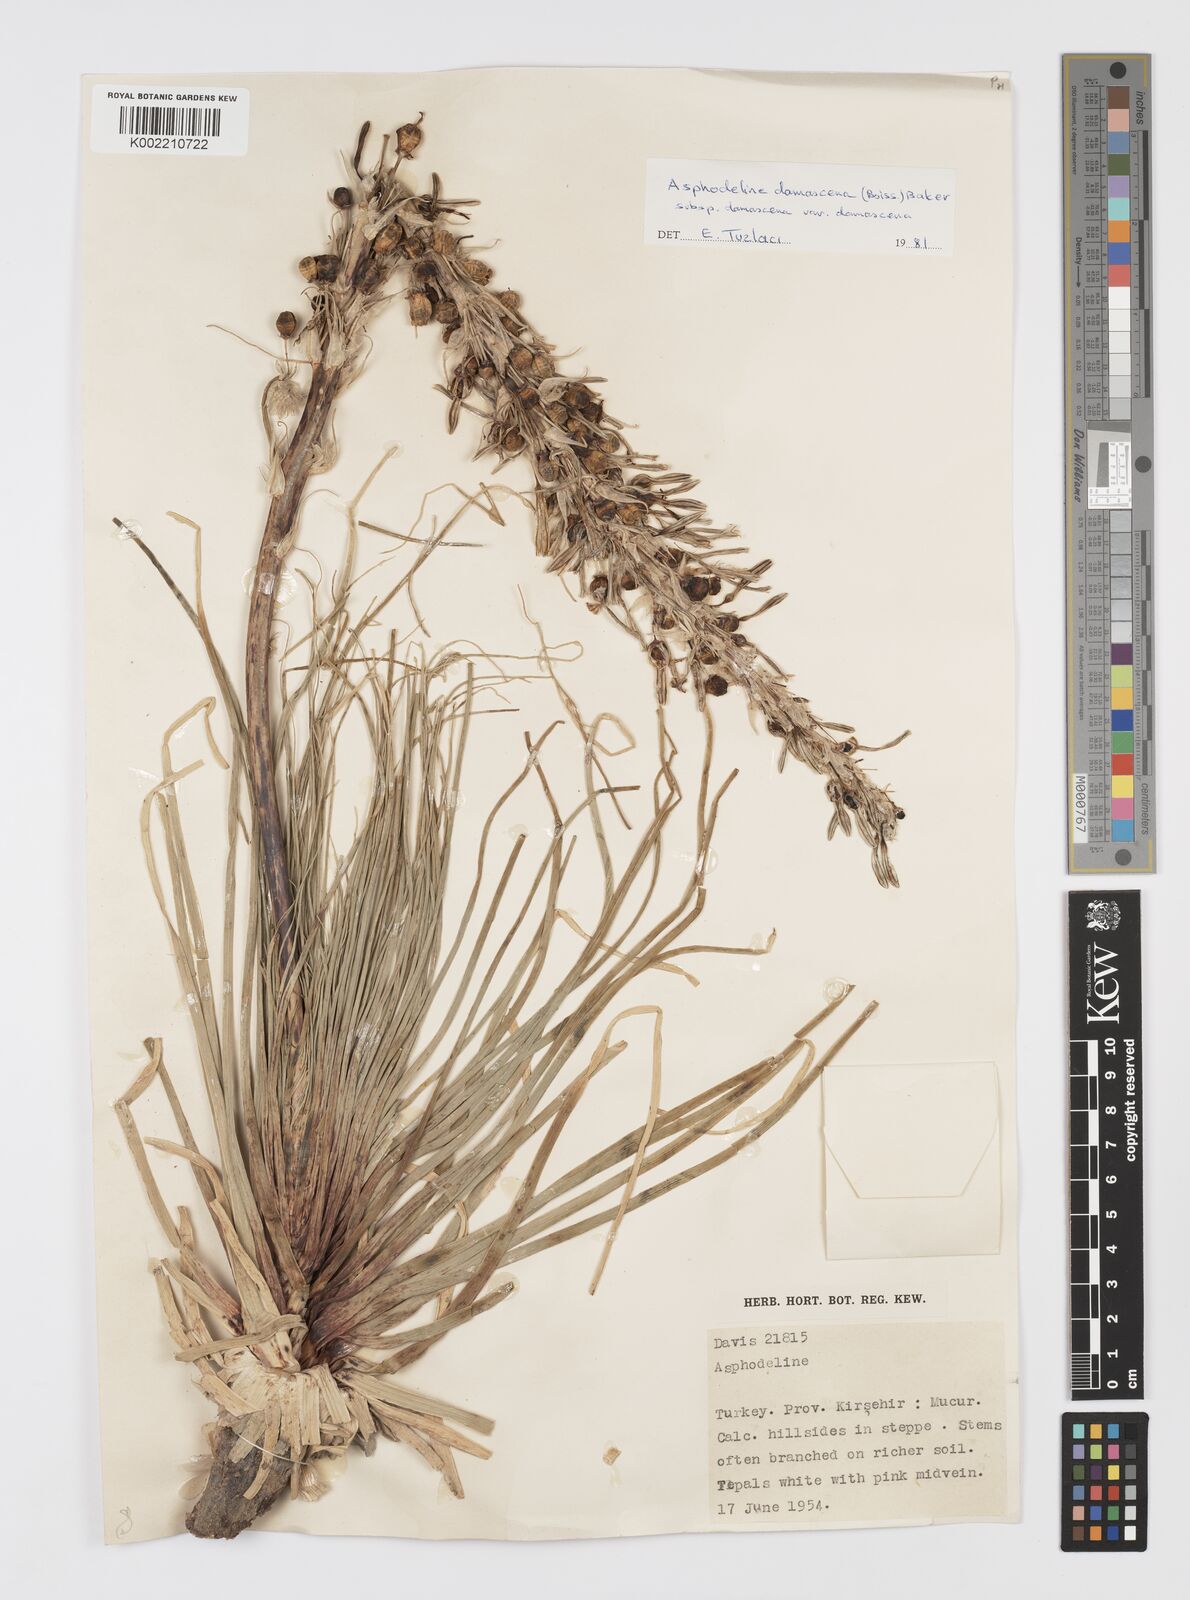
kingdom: Plantae
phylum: Tracheophyta
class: Liliopsida
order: Asparagales
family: Asphodelaceae
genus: Asphodeline
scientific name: Asphodeline damascena
